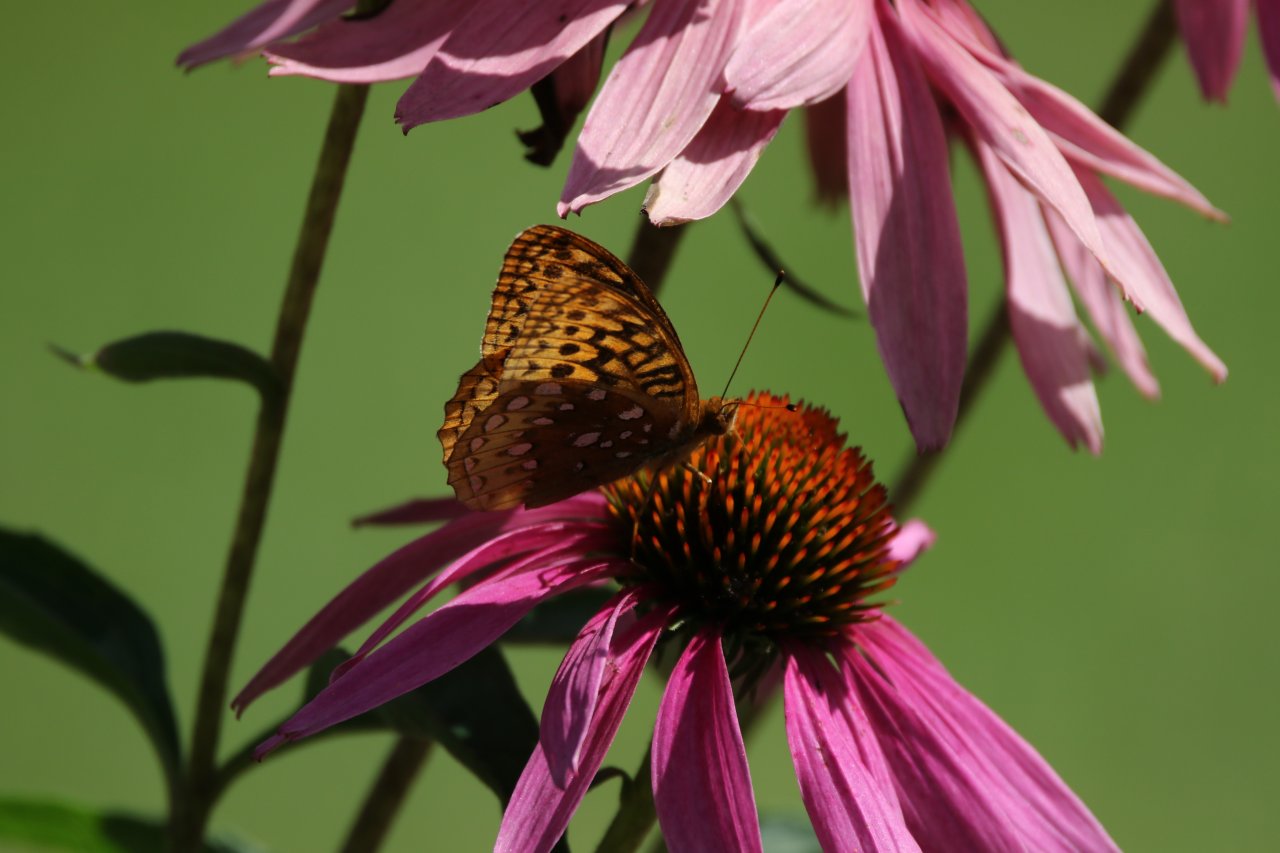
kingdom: Animalia
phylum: Arthropoda
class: Insecta
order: Lepidoptera
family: Nymphalidae
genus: Speyeria
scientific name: Speyeria cybele
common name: Great Spangled Fritillary
